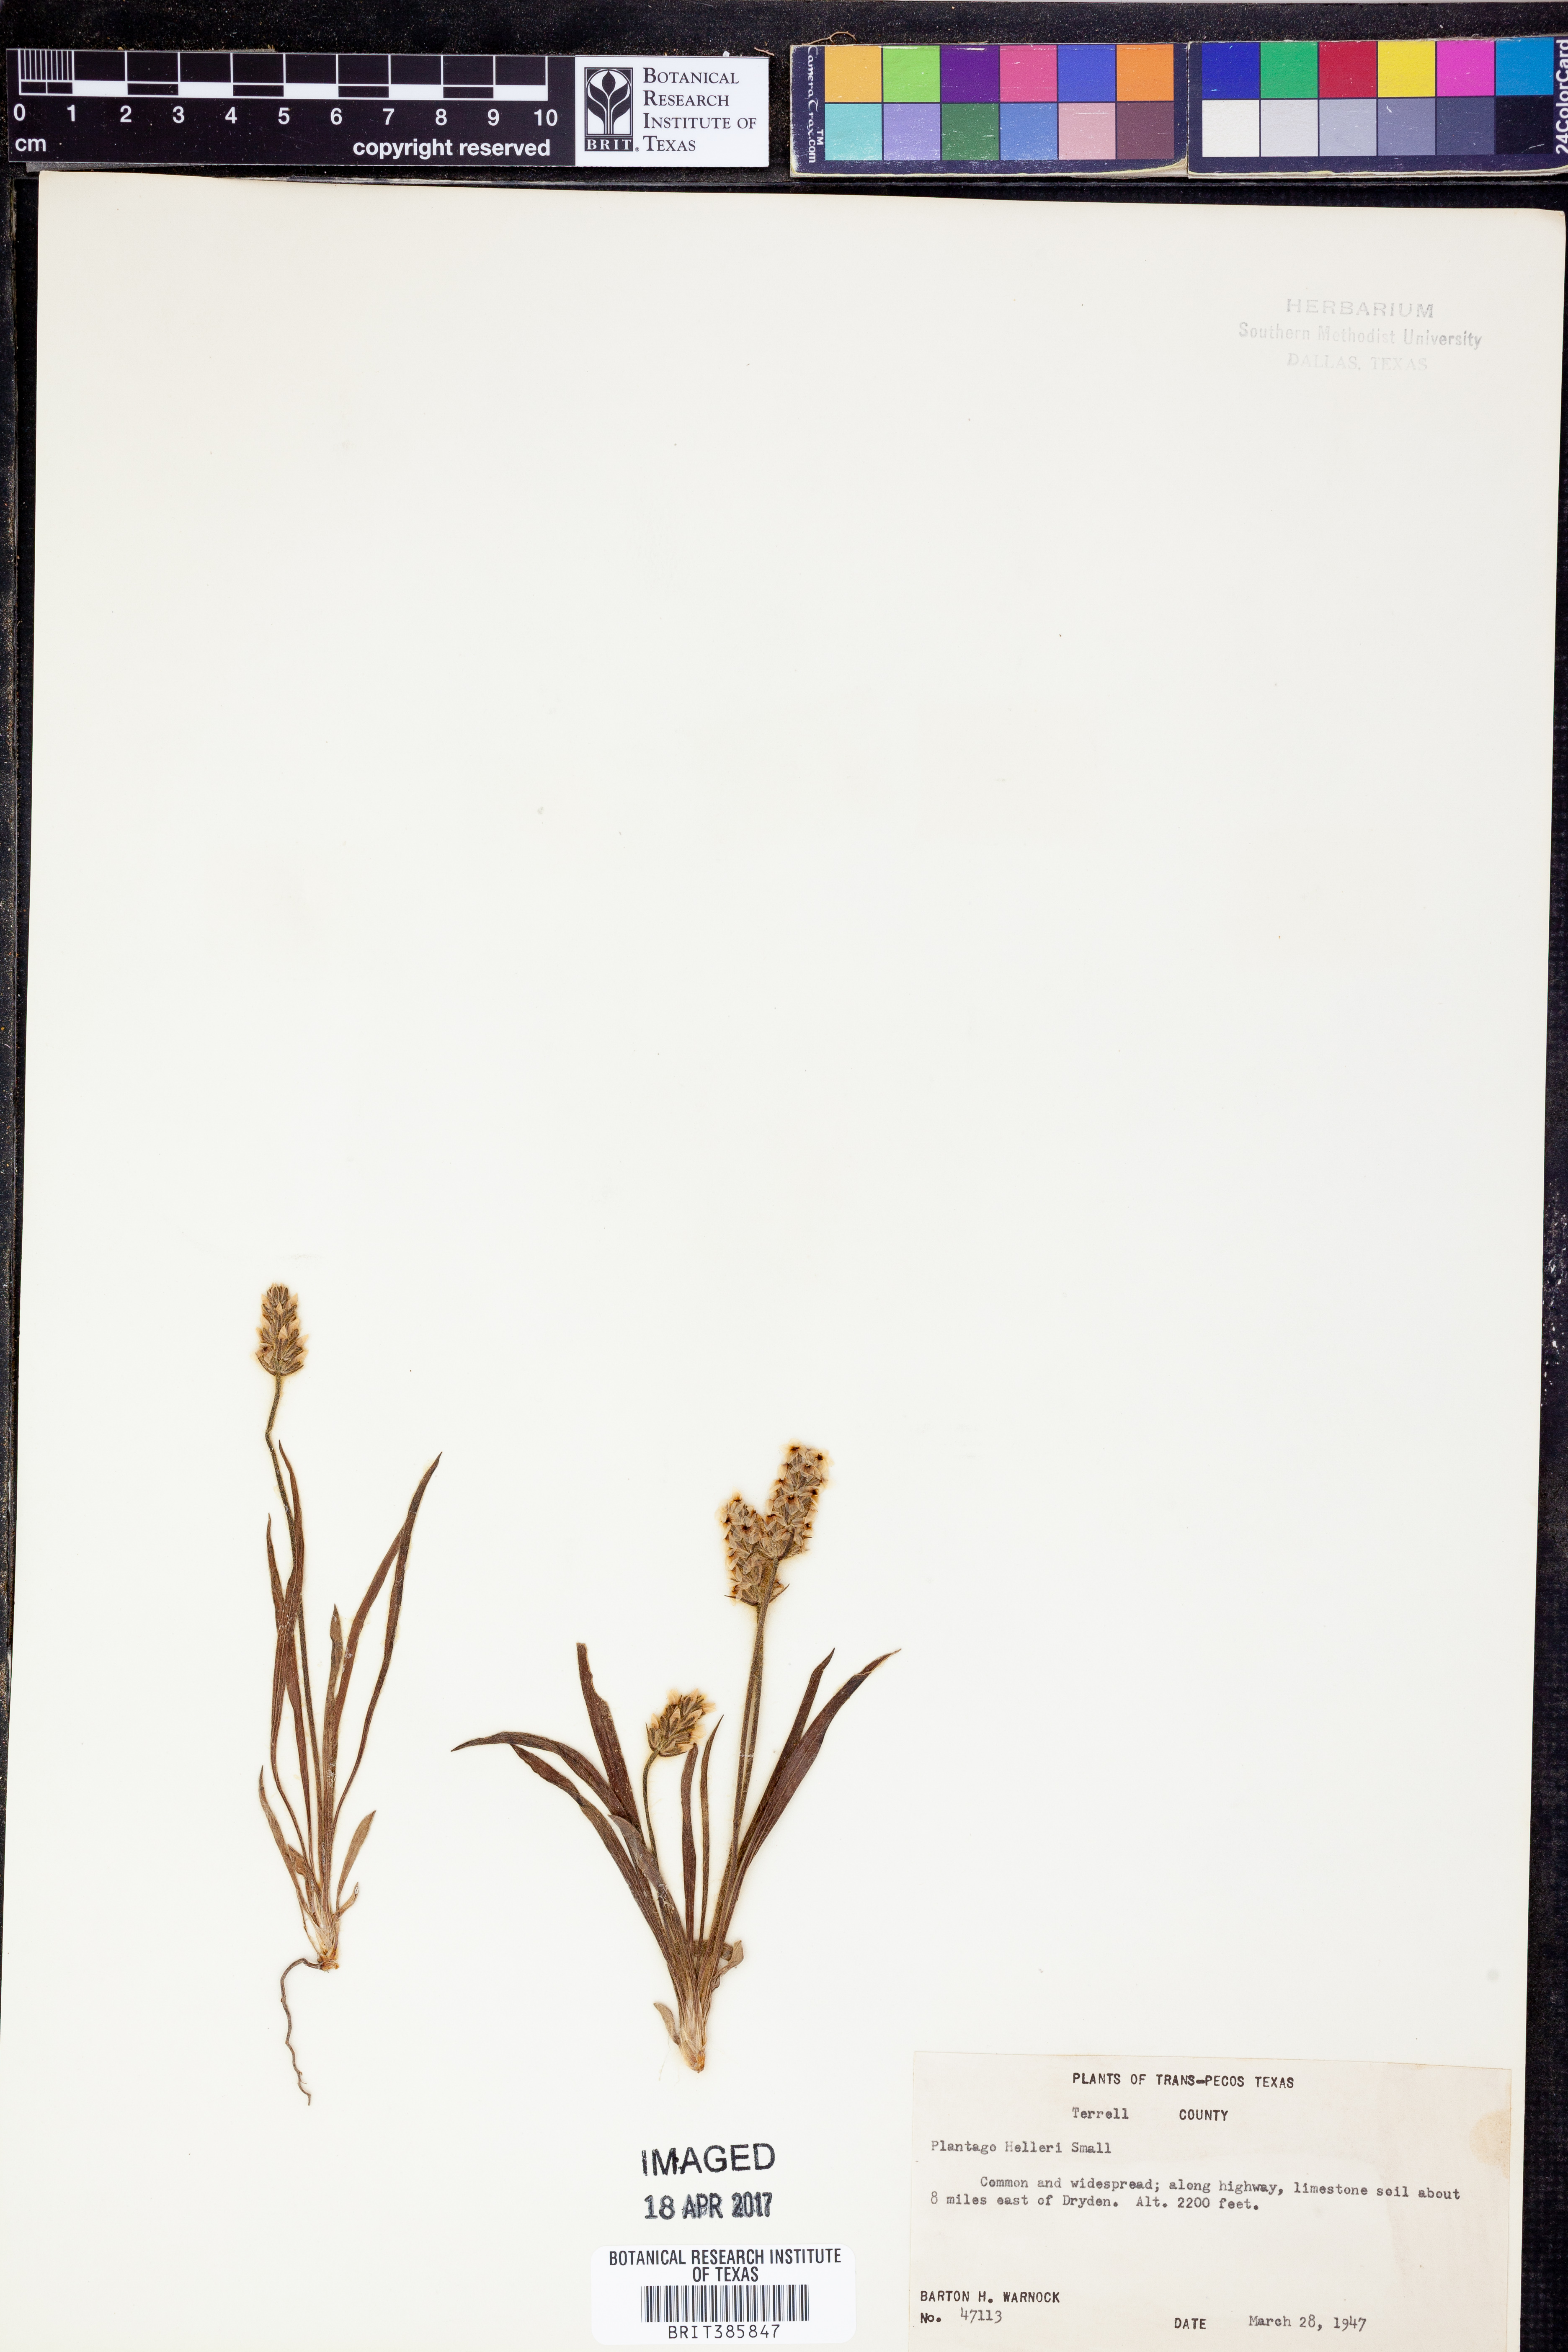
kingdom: Plantae
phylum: Tracheophyta
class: Magnoliopsida
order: Lamiales
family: Plantaginaceae
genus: Plantago
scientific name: Plantago helleri
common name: Heller's plantain
